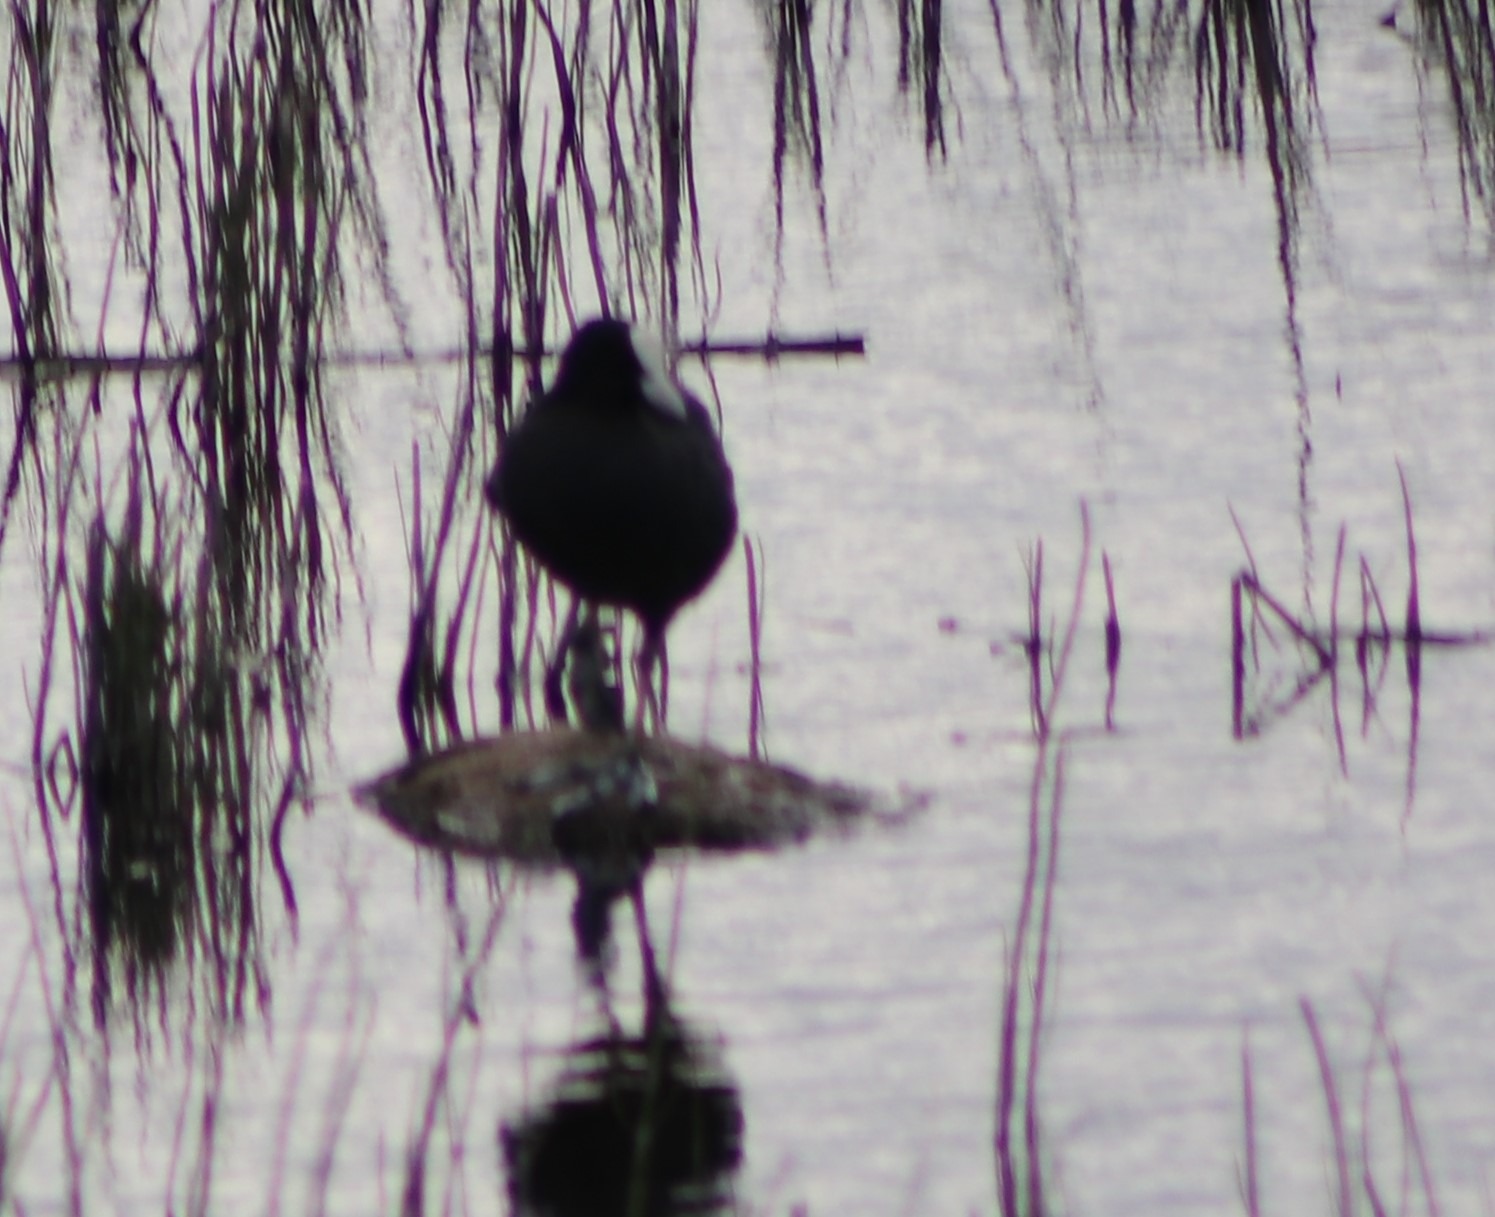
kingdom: Animalia
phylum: Chordata
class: Aves
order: Gruiformes
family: Rallidae
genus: Fulica
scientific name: Fulica atra
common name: Blishøne
